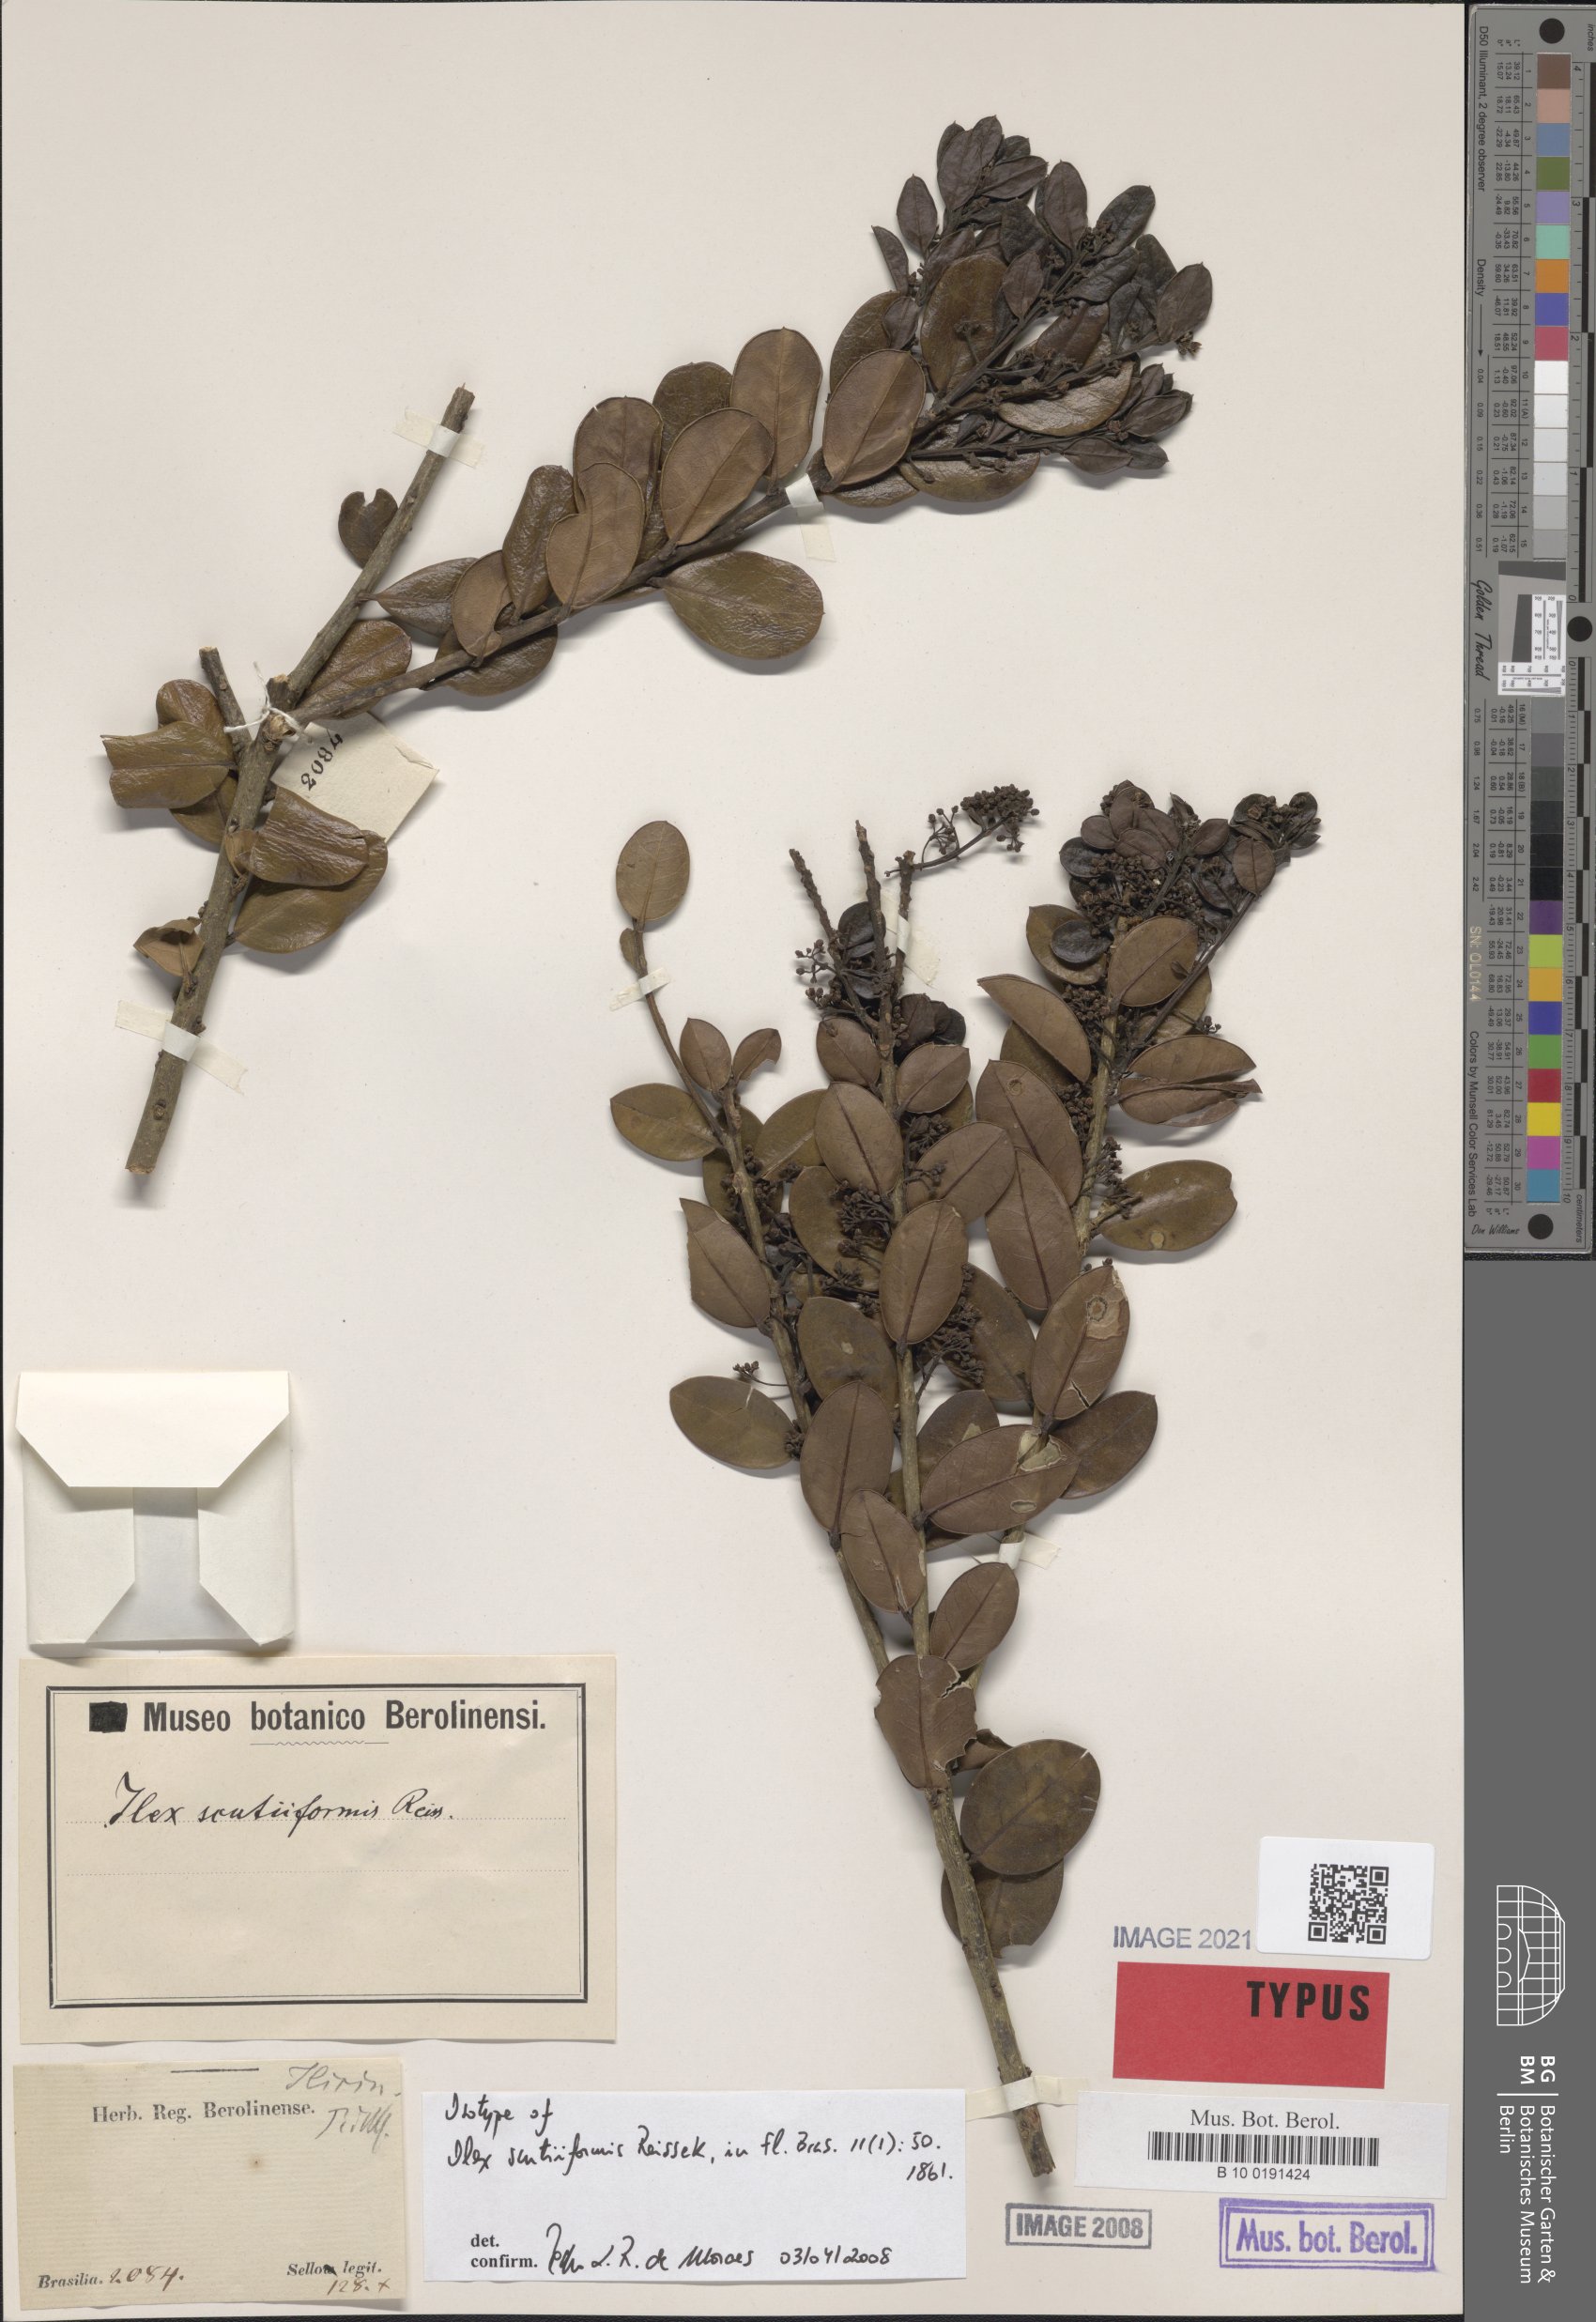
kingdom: Plantae
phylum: Tracheophyta
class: Magnoliopsida
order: Aquifoliales
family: Aquifoliaceae
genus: Ilex
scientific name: Ilex scutiiformis
